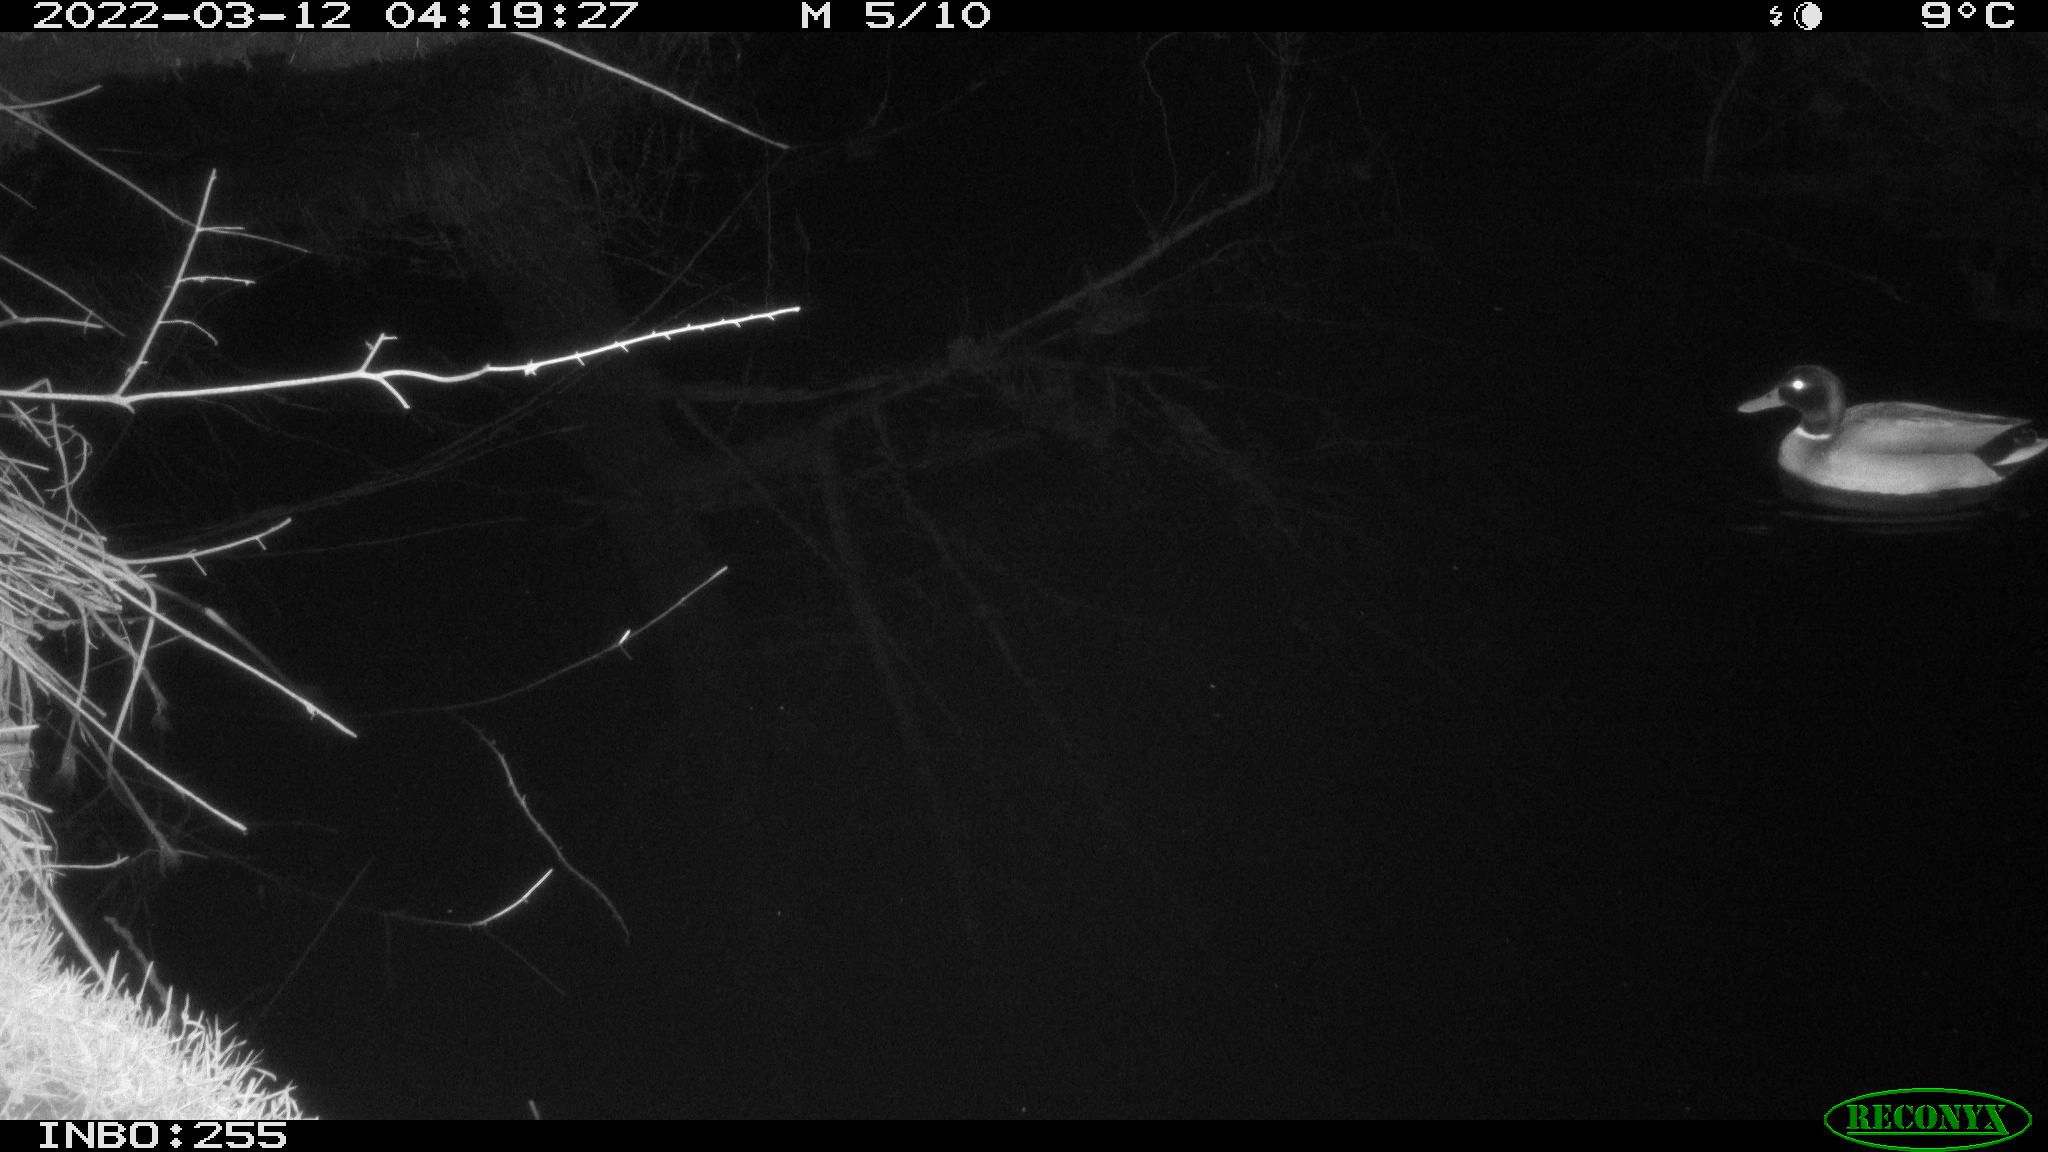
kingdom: Animalia
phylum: Chordata
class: Aves
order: Anseriformes
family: Anatidae
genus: Anas
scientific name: Anas platyrhynchos
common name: Mallard
